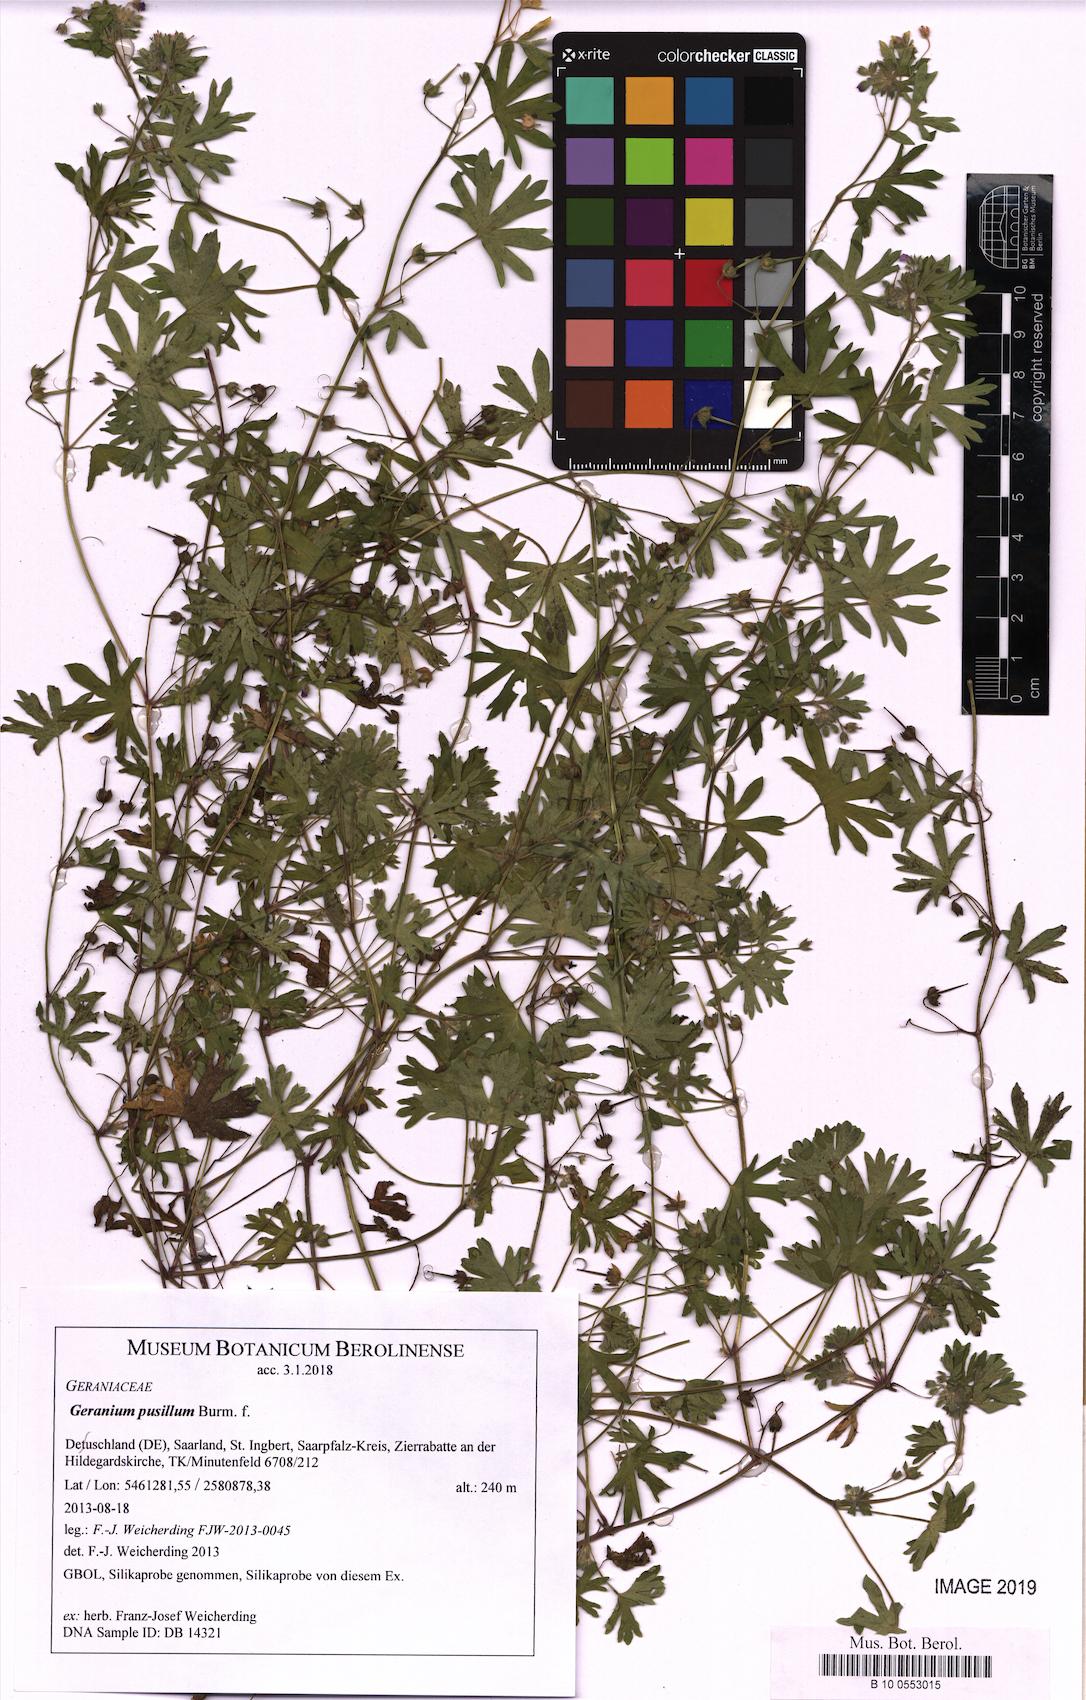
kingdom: Plantae
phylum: Tracheophyta
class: Magnoliopsida
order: Geraniales
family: Geraniaceae
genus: Geranium
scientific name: Geranium pusillum
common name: Small geranium
